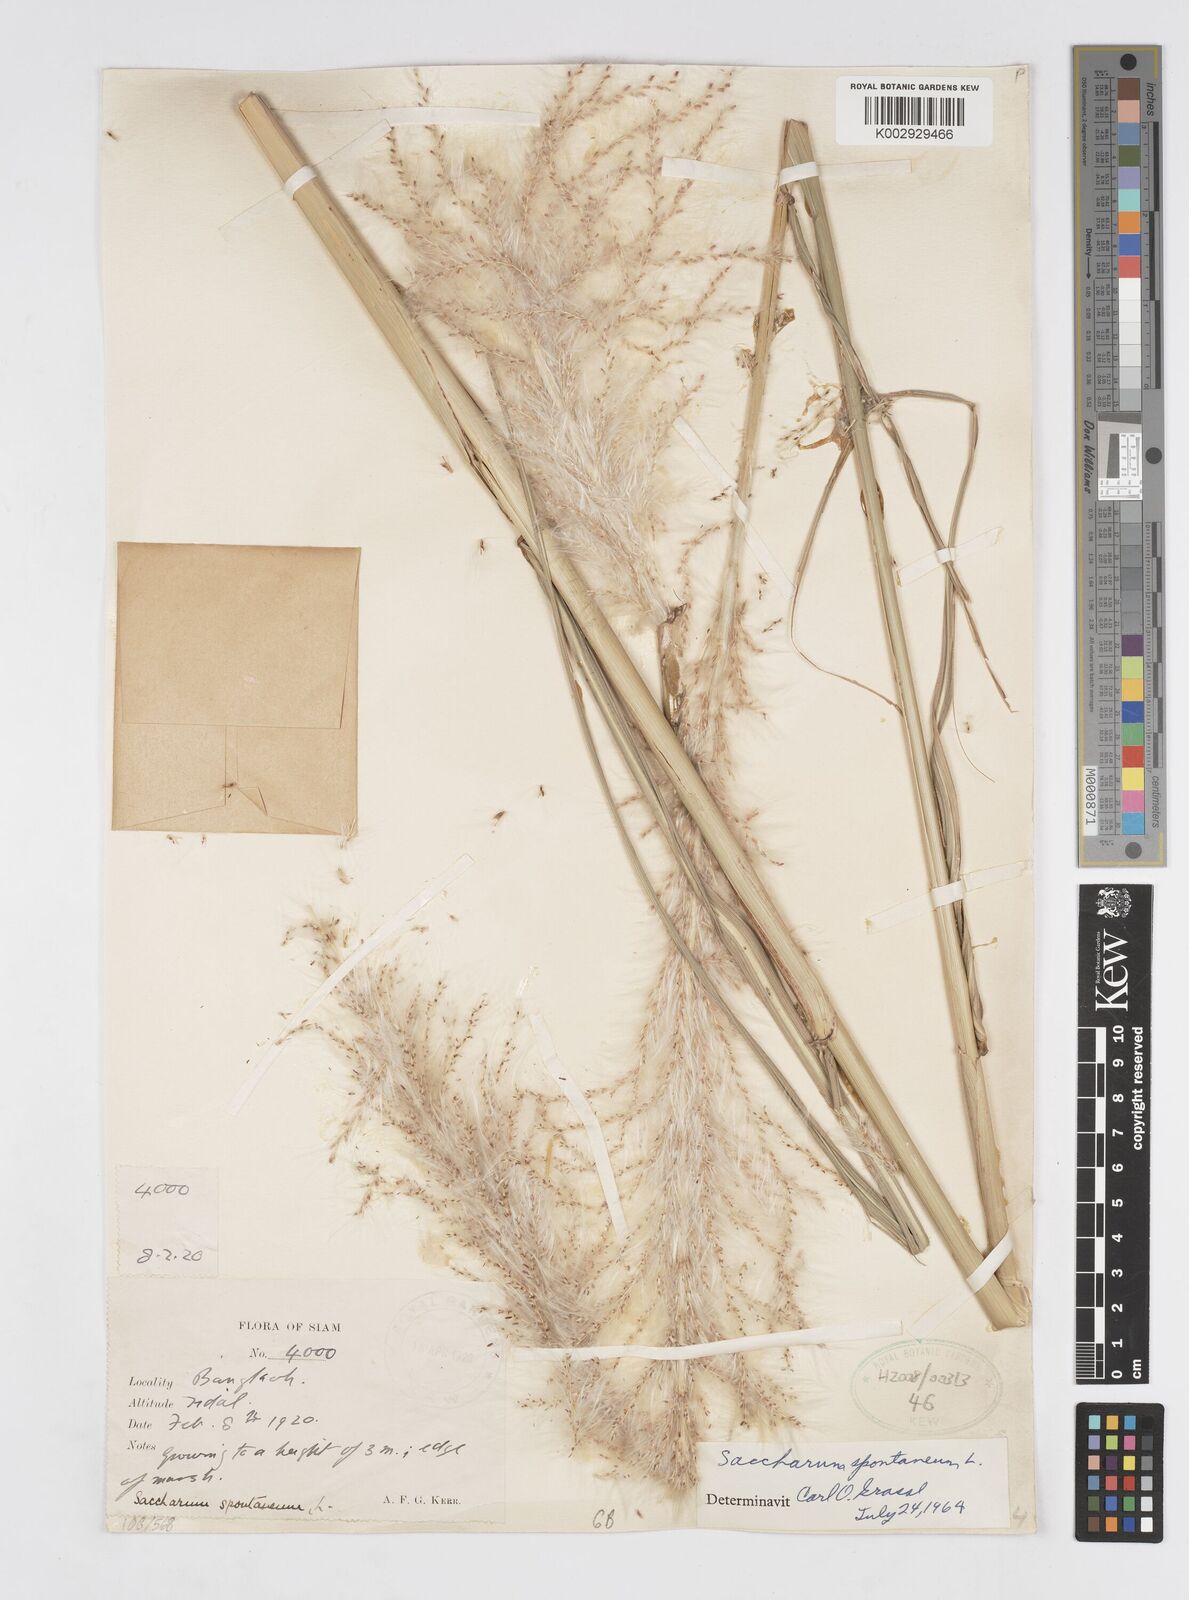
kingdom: Plantae
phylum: Tracheophyta
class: Liliopsida
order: Poales
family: Poaceae
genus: Saccharum
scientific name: Saccharum spontaneum
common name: Wild sugarcane
